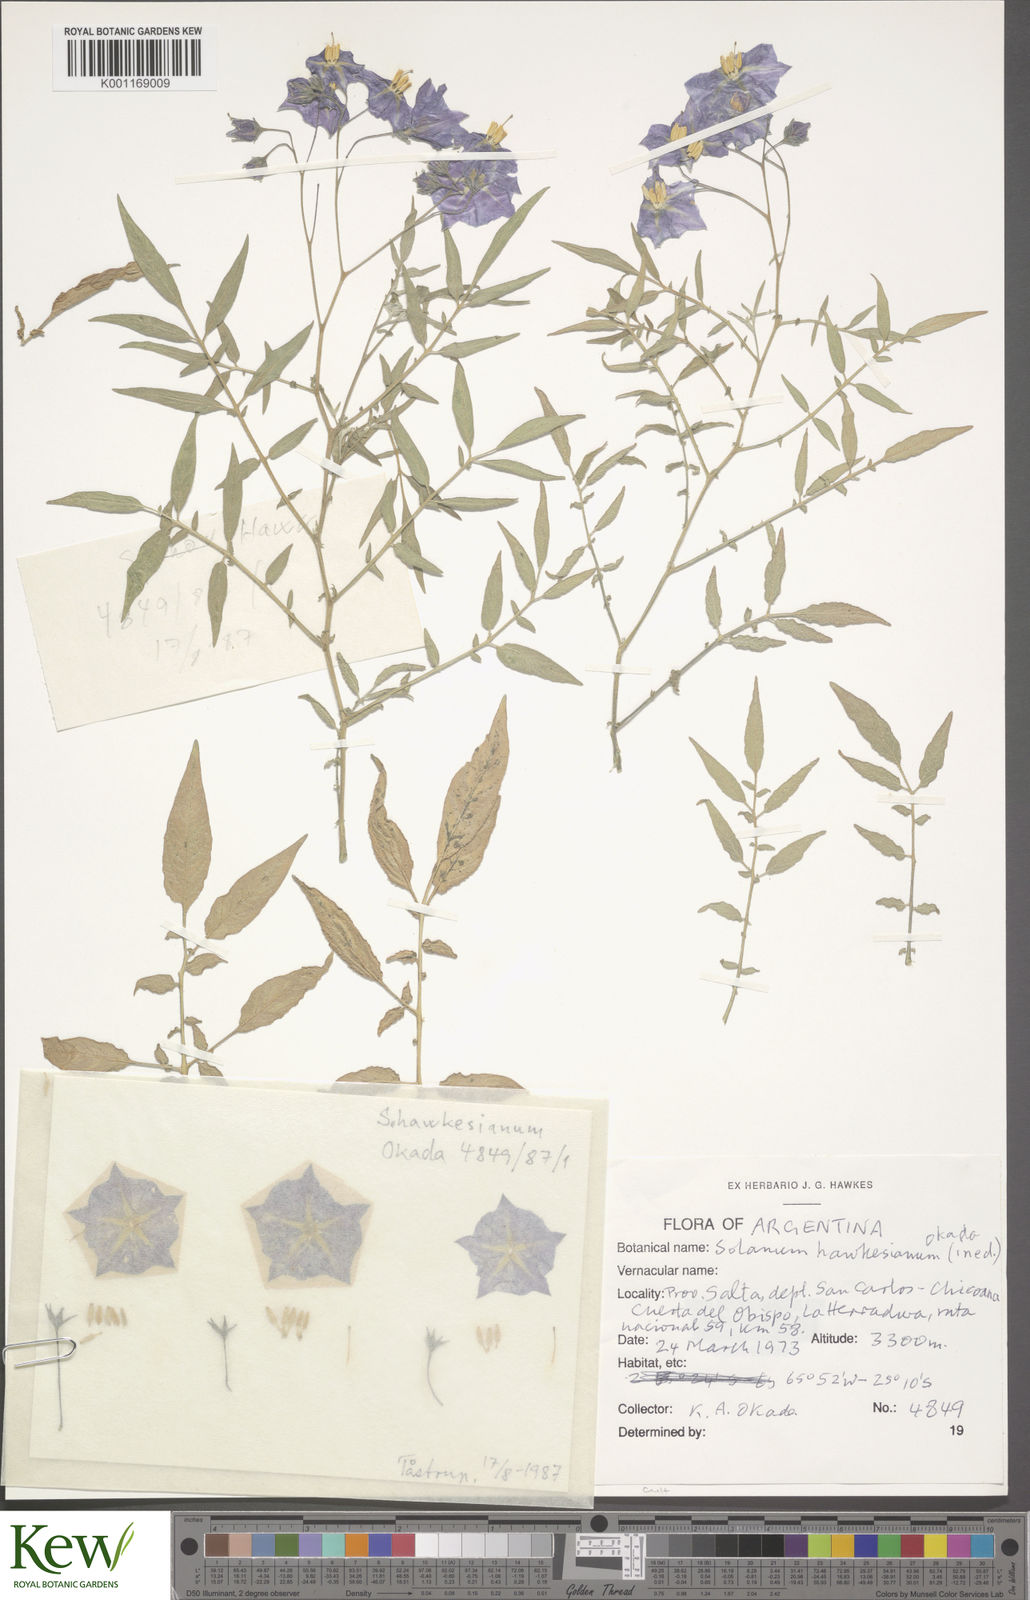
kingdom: Plantae
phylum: Tracheophyta
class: Magnoliopsida
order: Solanales
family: Solanaceae
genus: Solanum
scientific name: Solanum
